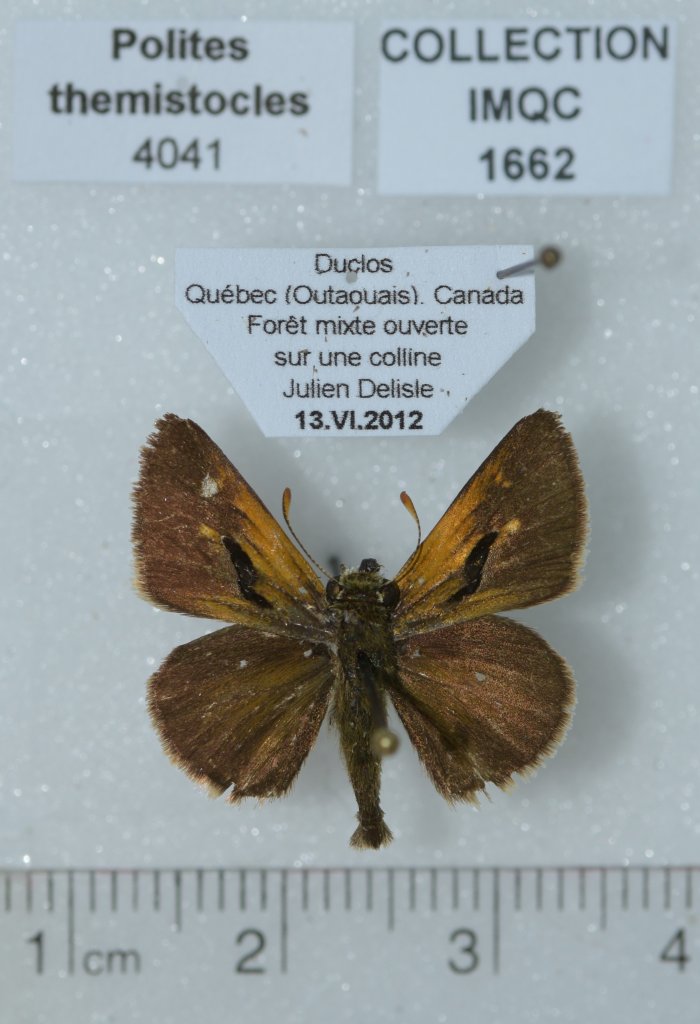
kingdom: Animalia
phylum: Arthropoda
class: Insecta
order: Lepidoptera
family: Hesperiidae
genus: Polites
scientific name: Polites themistocles
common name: Tawny-edged Skipper
